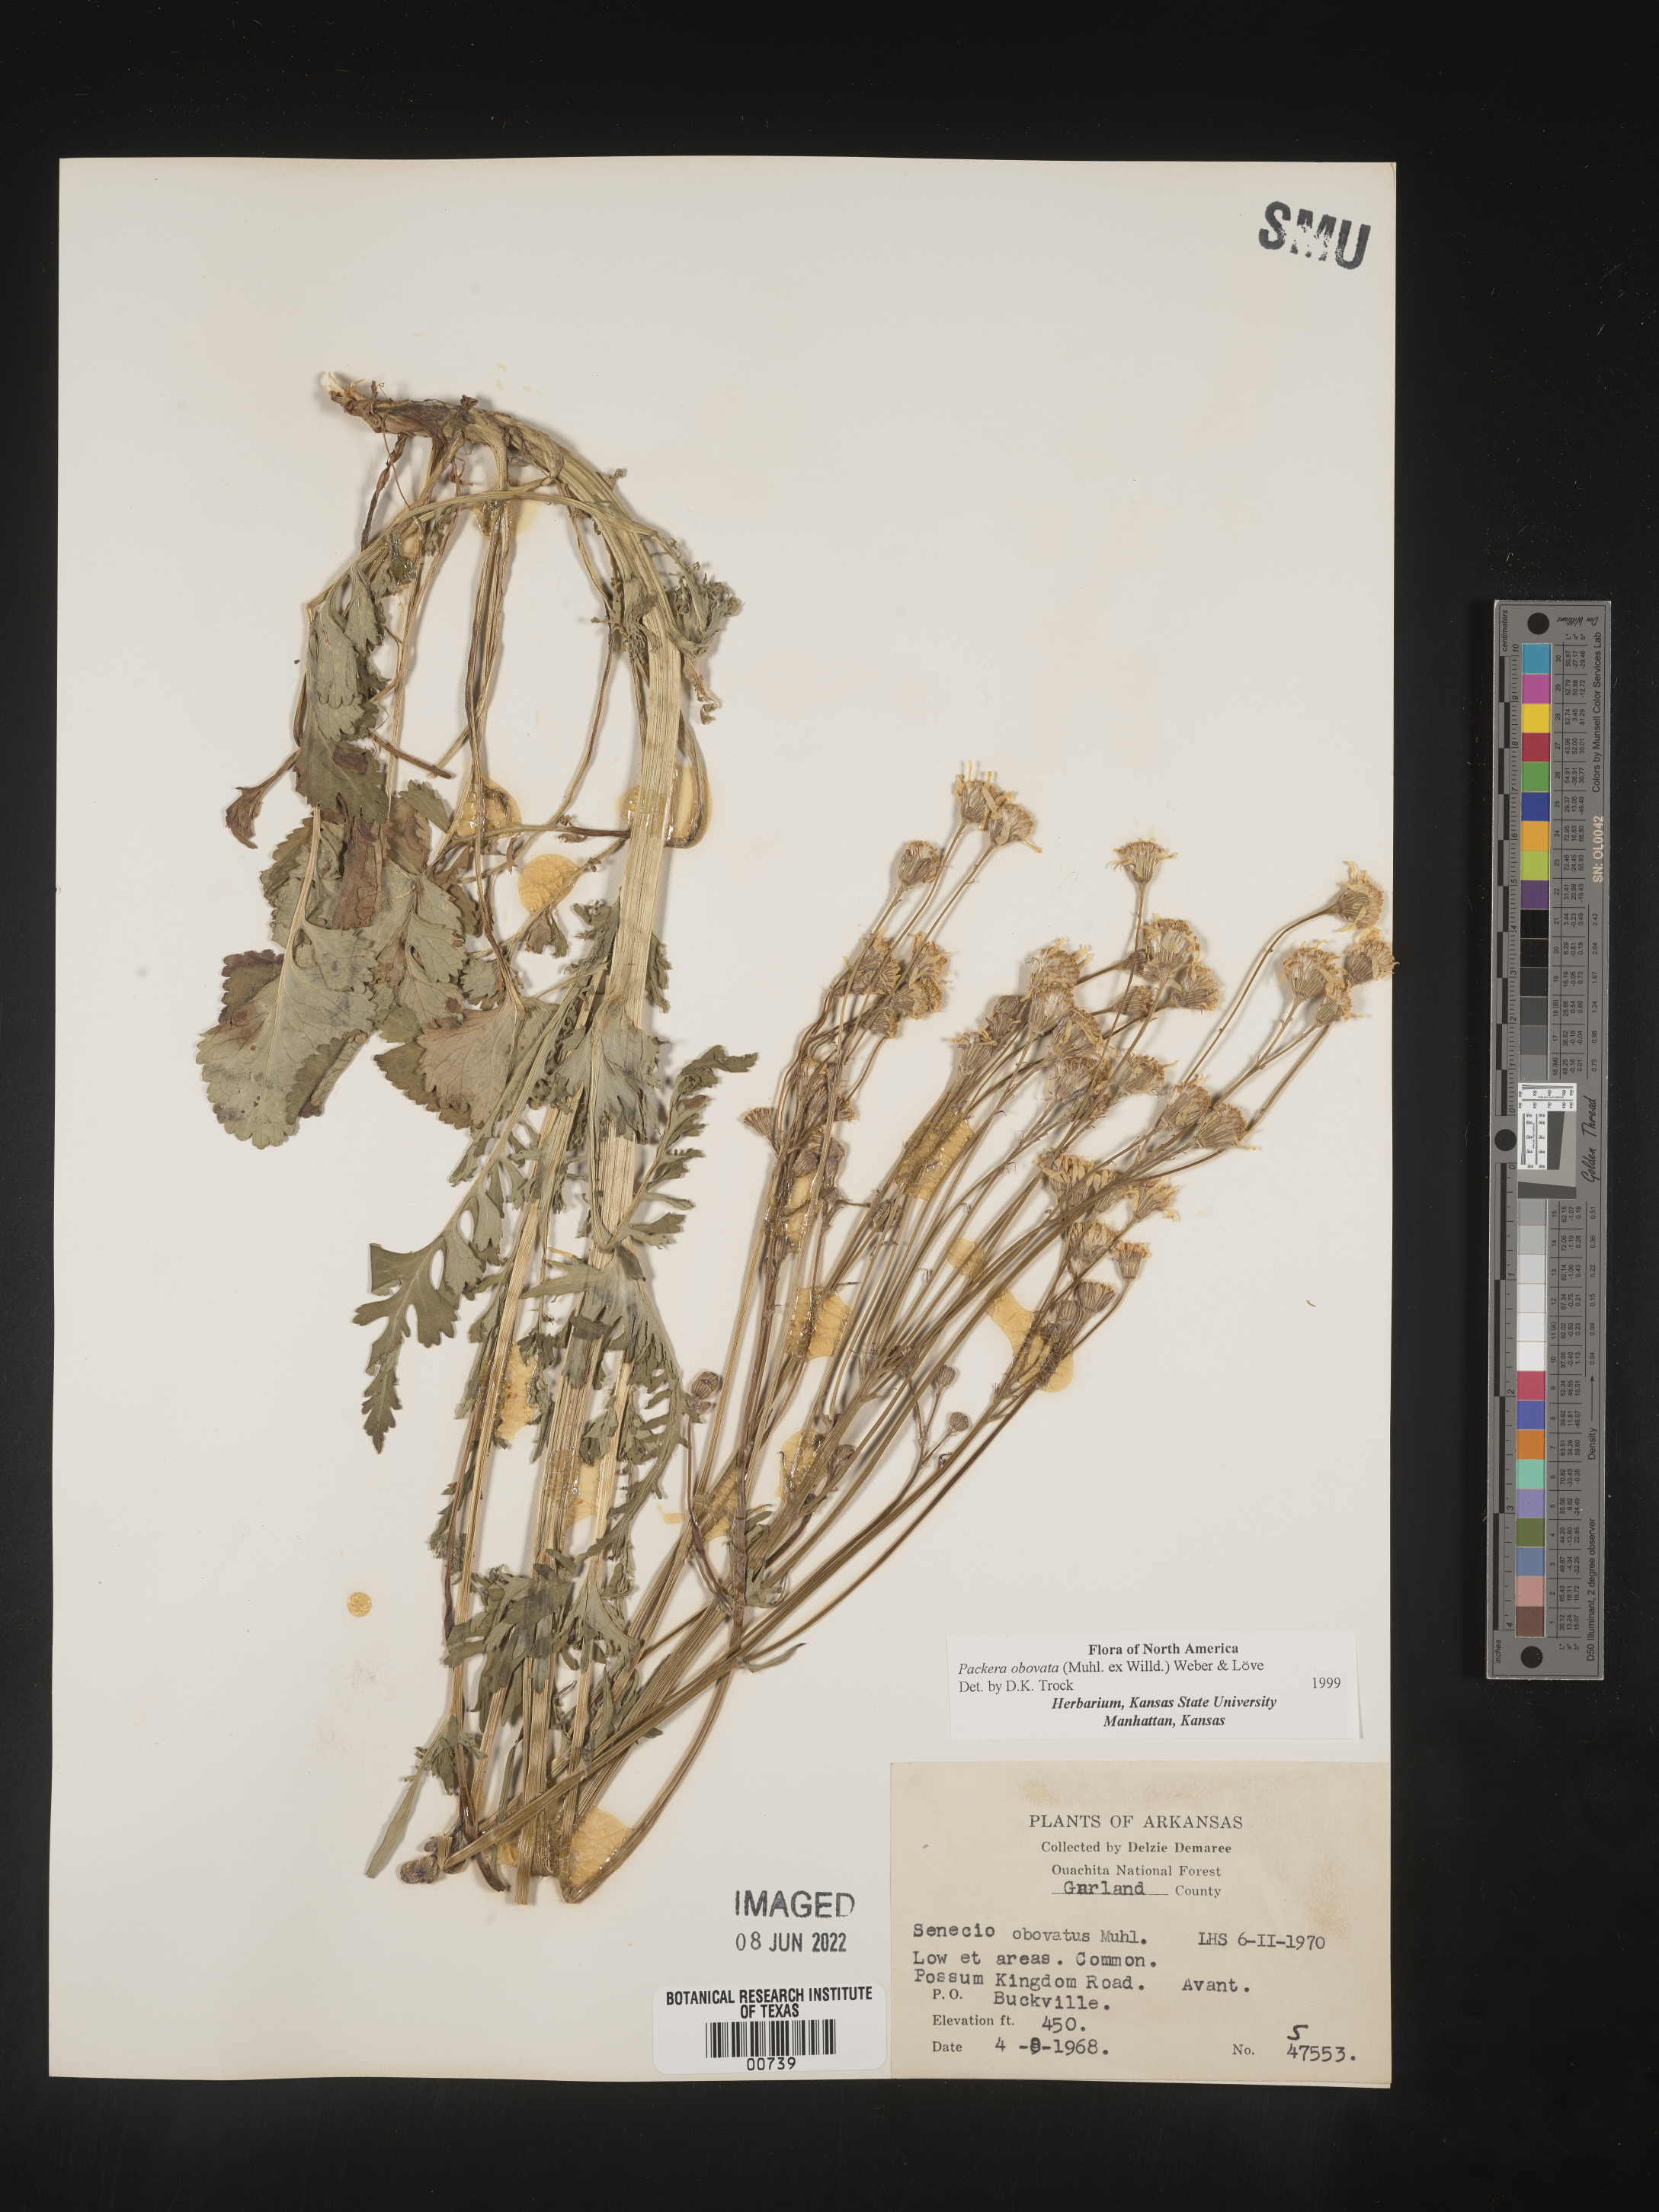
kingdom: Plantae
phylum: Tracheophyta
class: Magnoliopsida
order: Asterales
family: Asteraceae
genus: Packera
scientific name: Packera obovata
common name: Round-leaf ragwort
